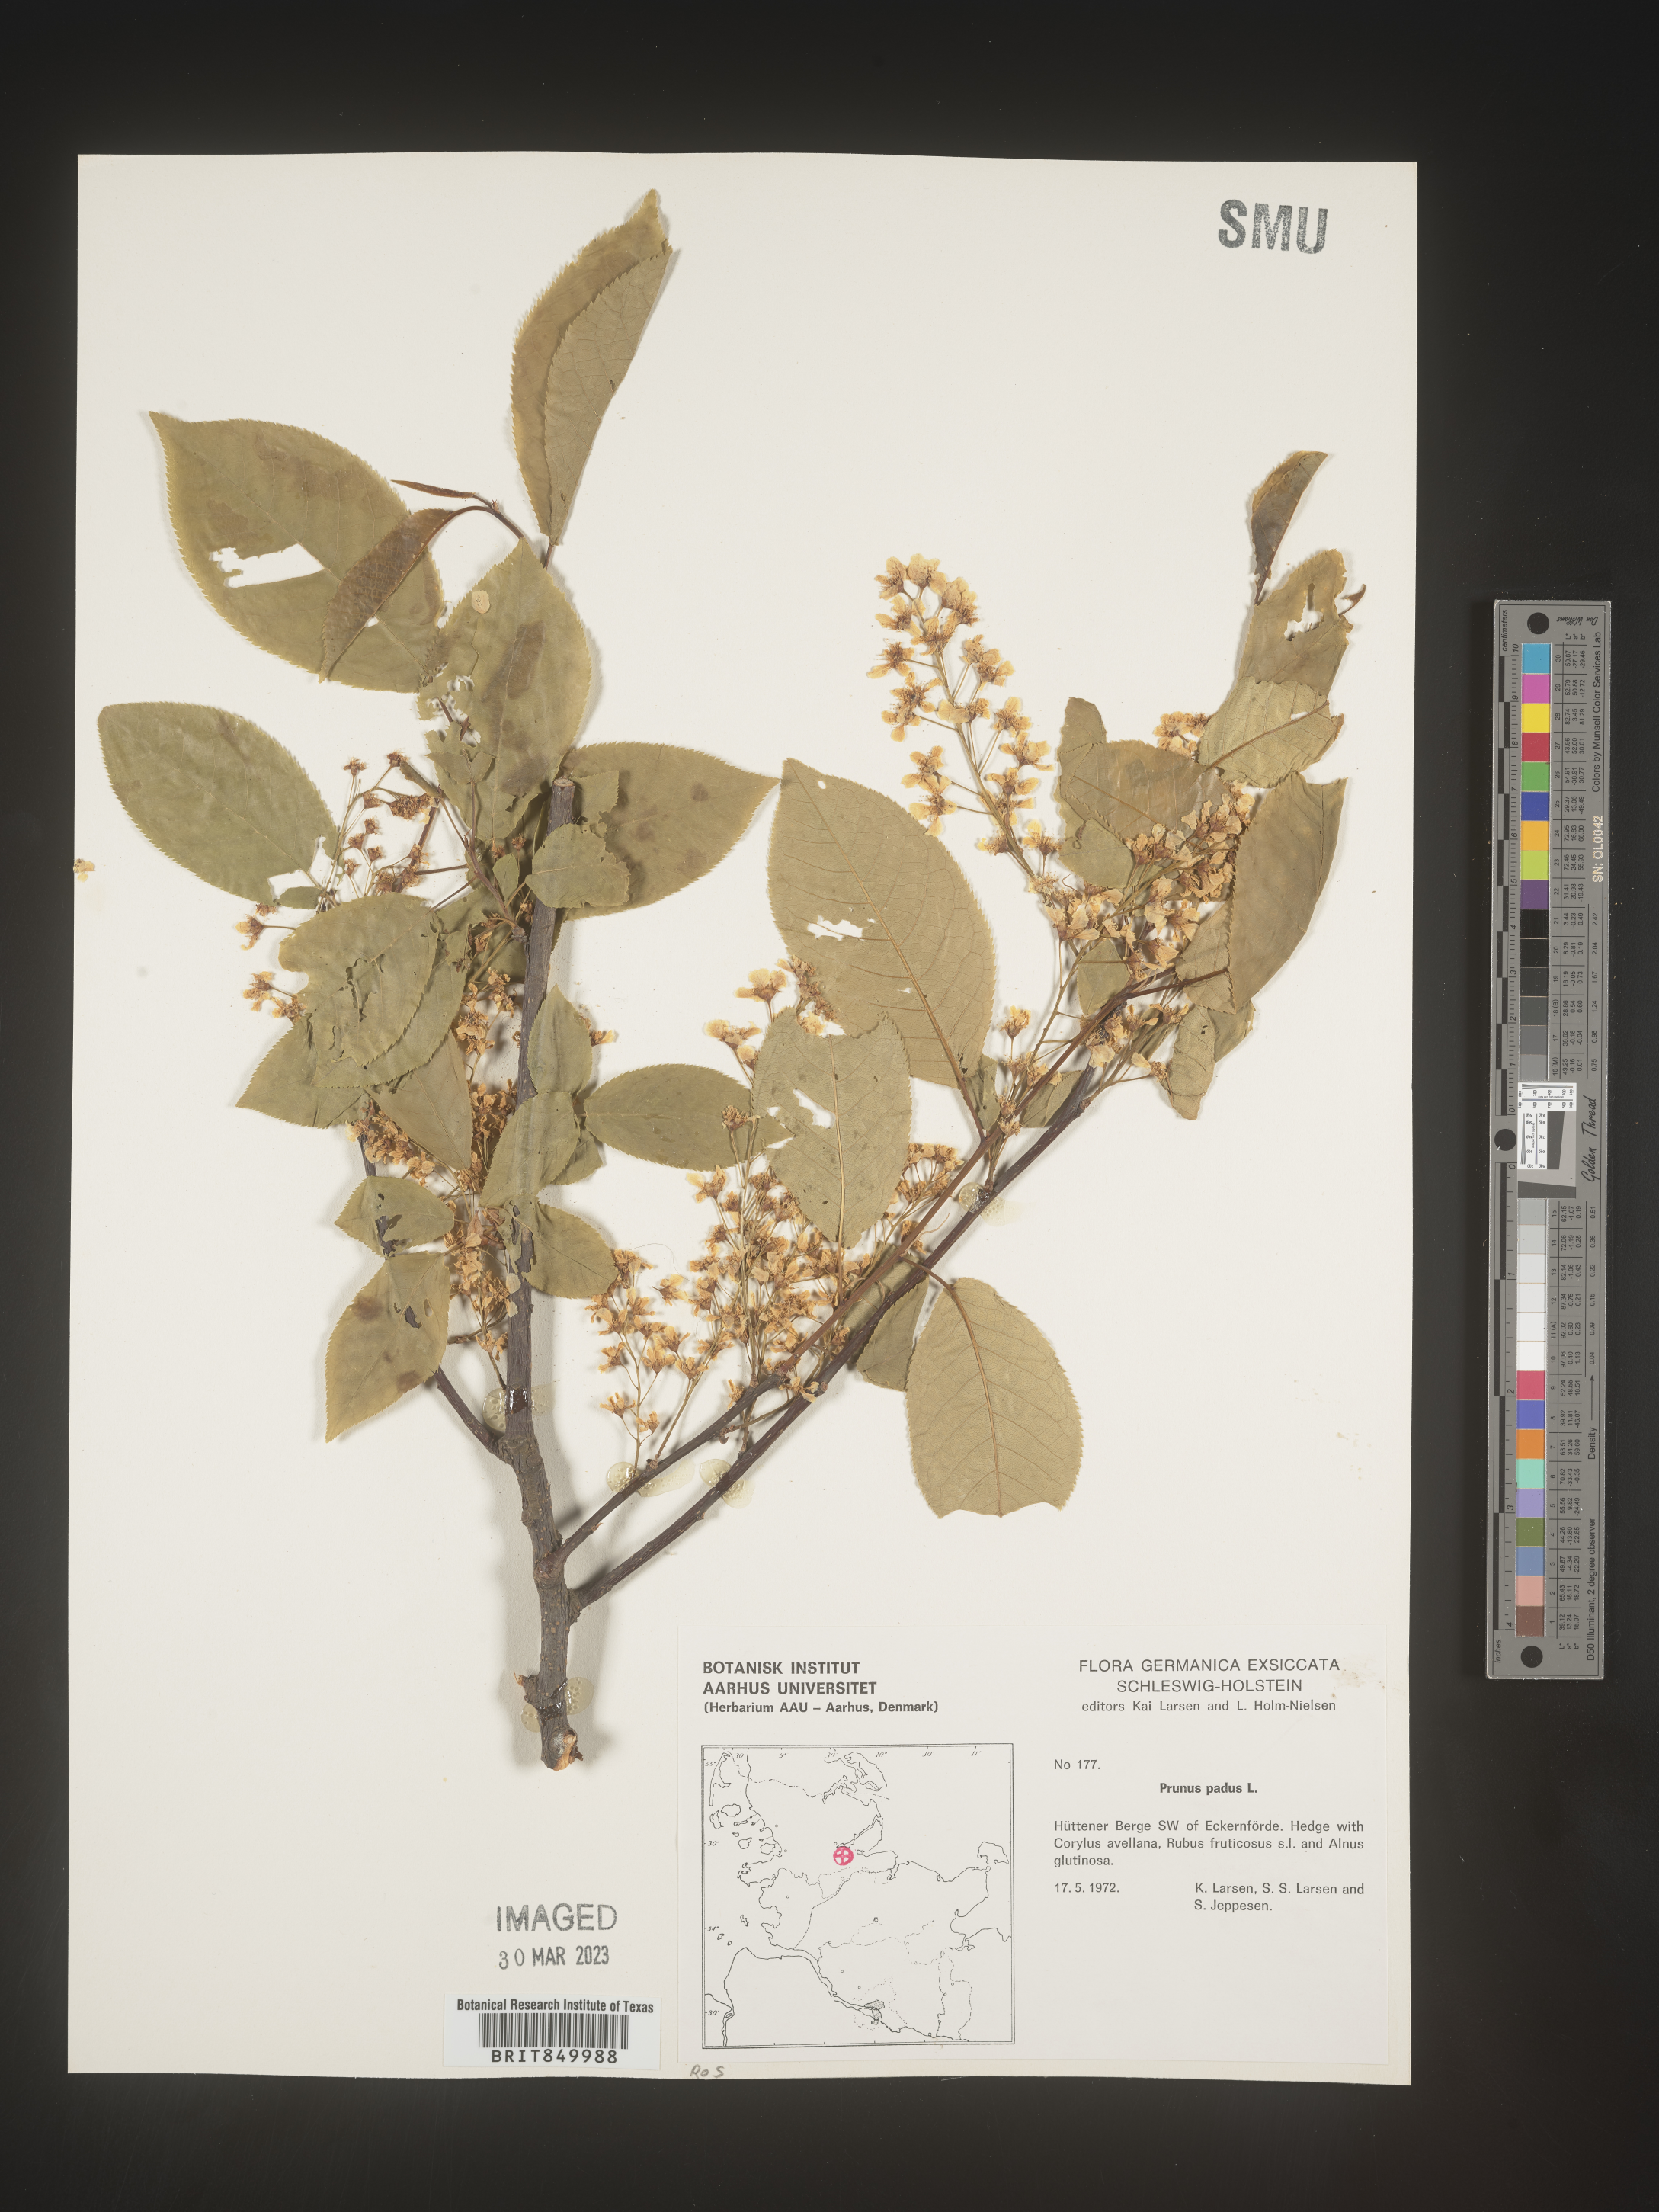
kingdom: Plantae
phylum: Tracheophyta
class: Magnoliopsida
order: Rosales
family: Rosaceae
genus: Prunus
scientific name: Prunus
